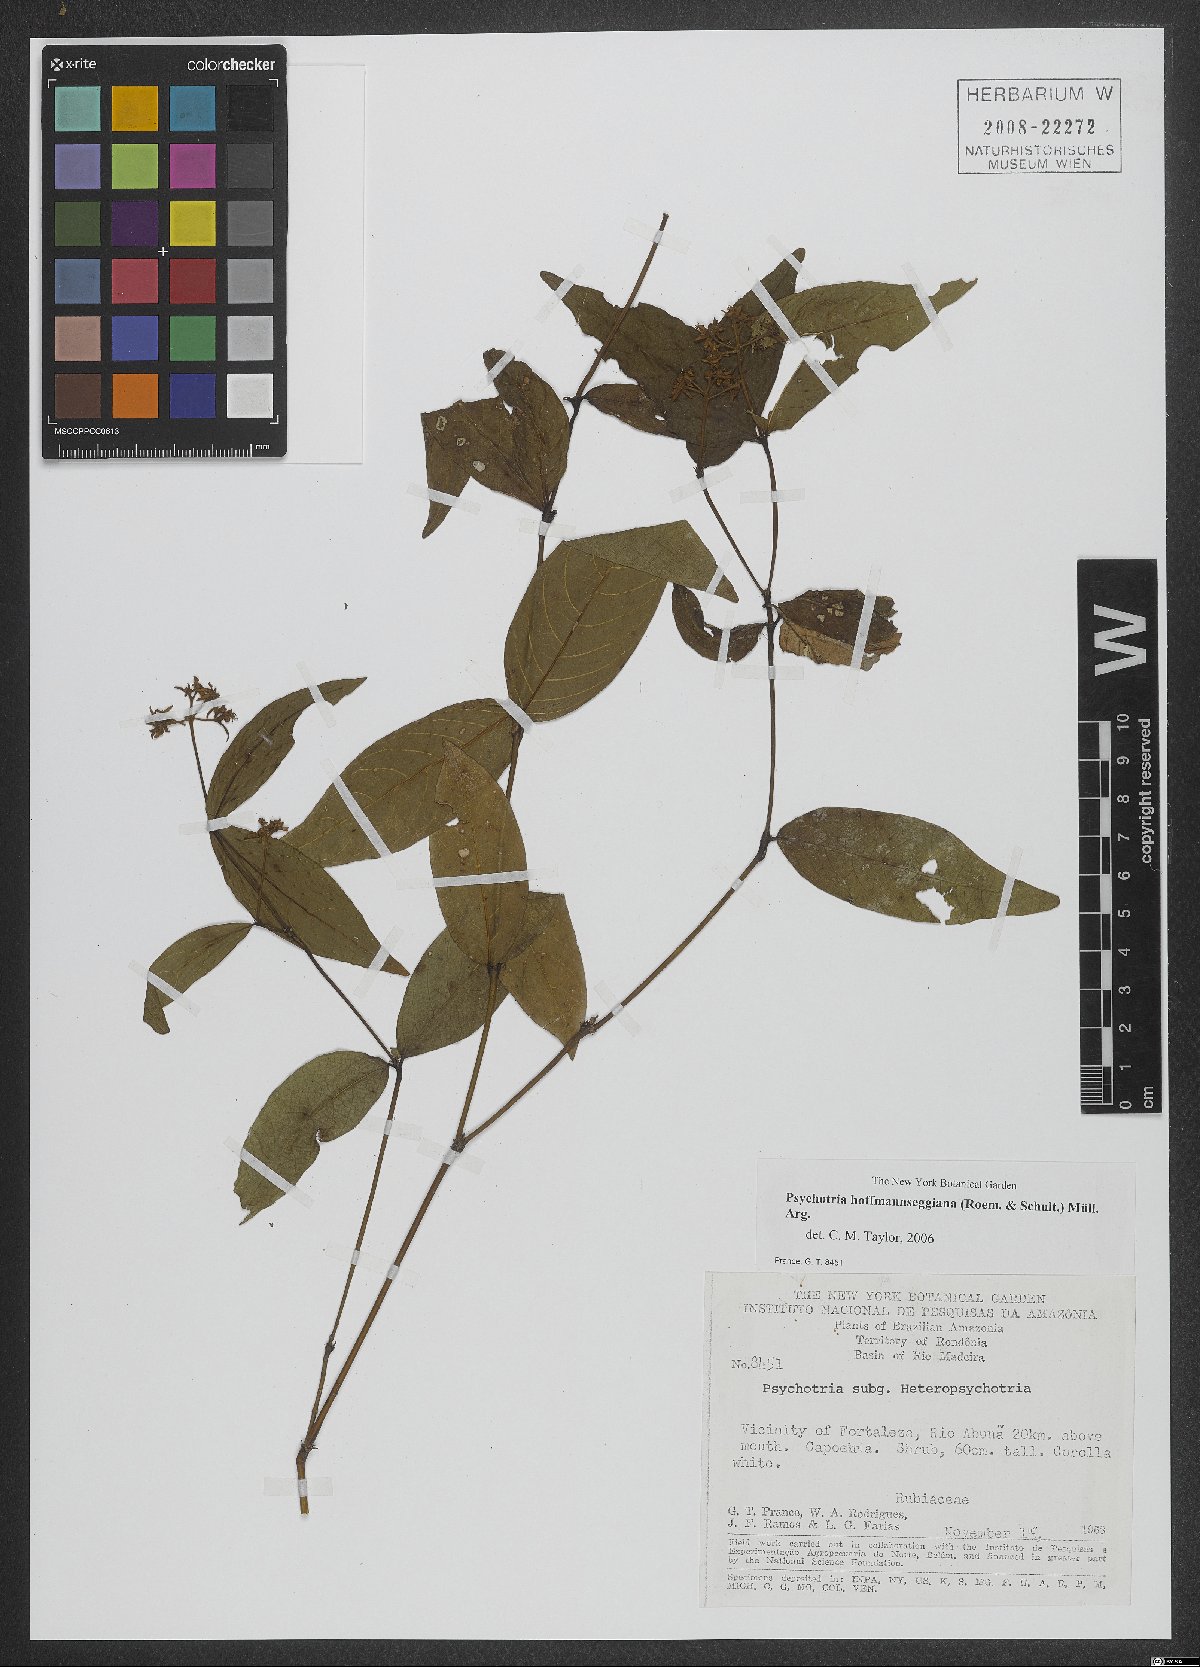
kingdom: Plantae
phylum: Tracheophyta
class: Magnoliopsida
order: Gentianales
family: Rubiaceae
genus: Palicourea
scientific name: Palicourea hoffmannseggiana
